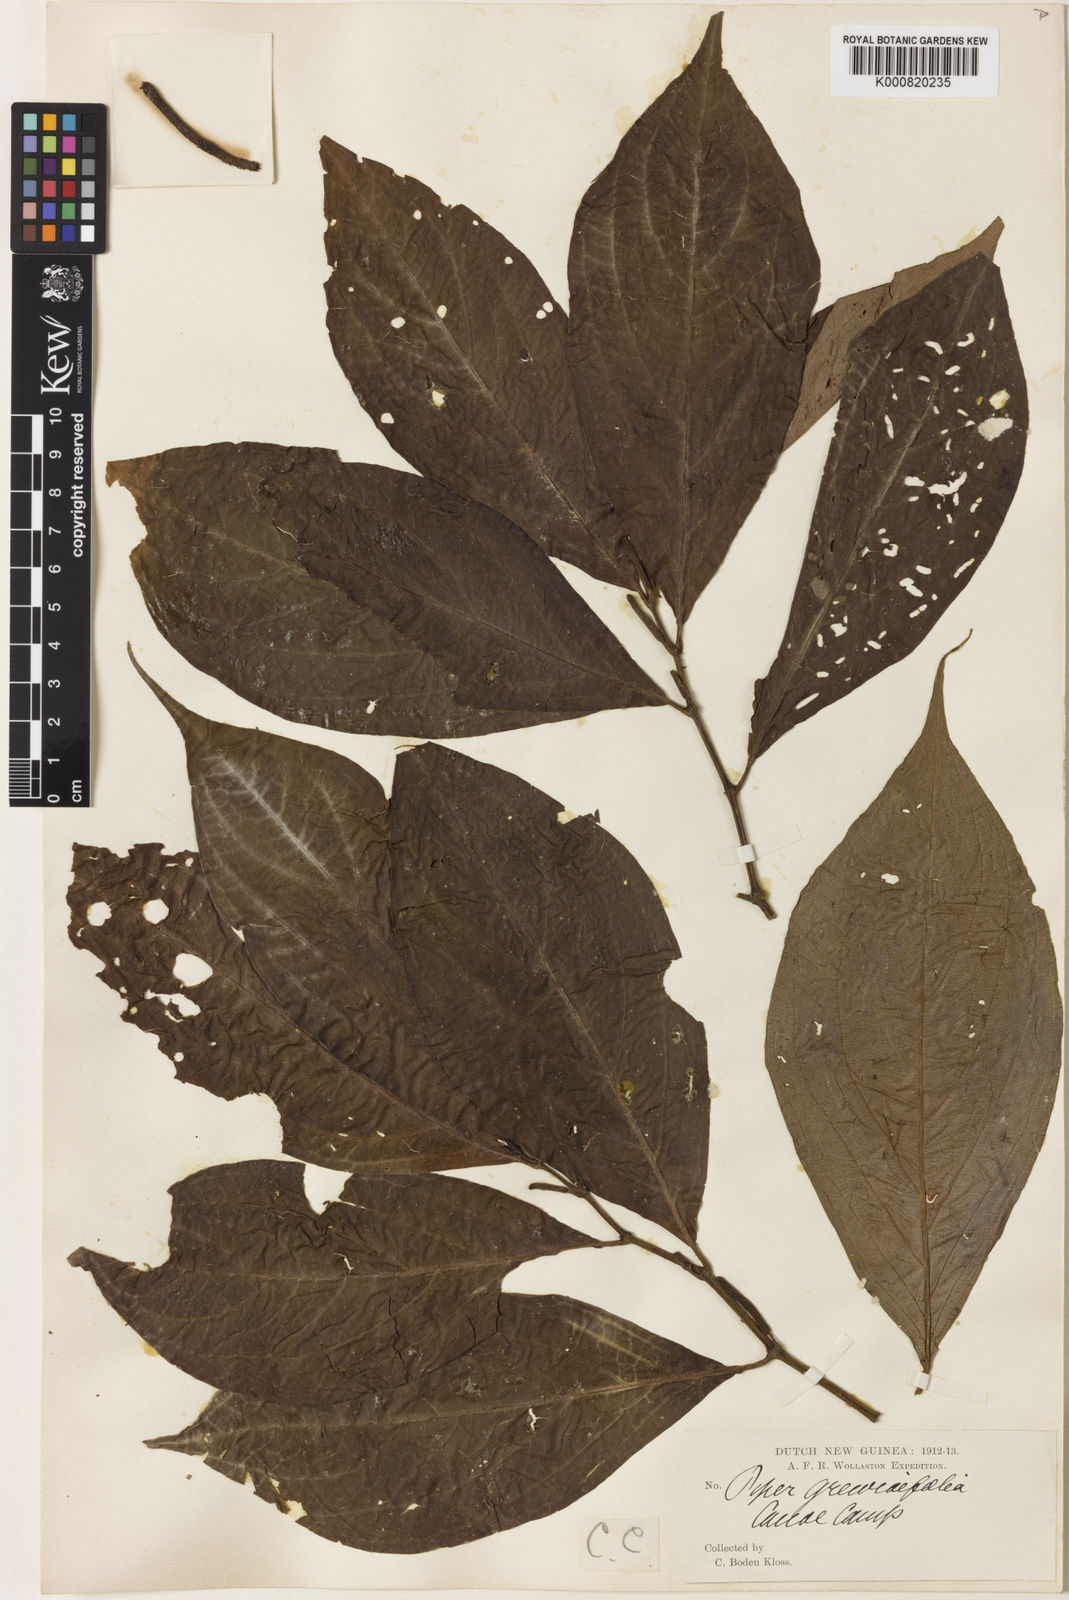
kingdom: Plantae
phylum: Tracheophyta
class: Magnoliopsida
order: Piperales
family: Piperaceae
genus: Piper
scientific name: Piper
